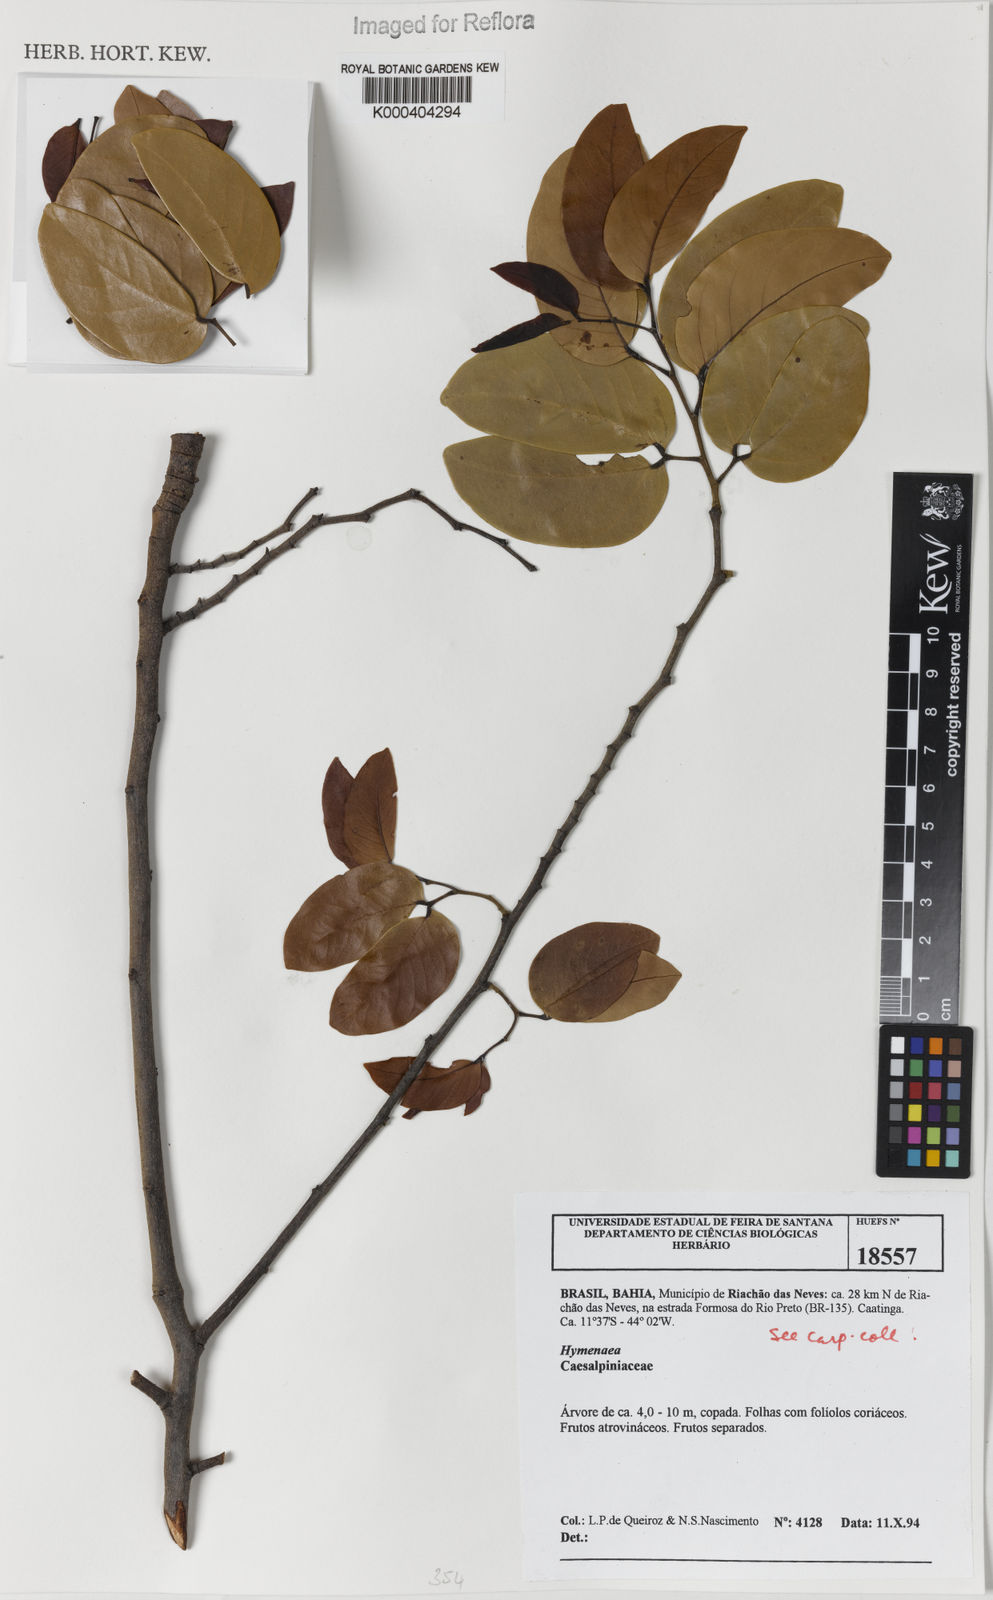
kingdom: Plantae
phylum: Tracheophyta
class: Magnoliopsida
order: Fabales
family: Fabaceae
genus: Hymenaea
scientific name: Hymenaea
